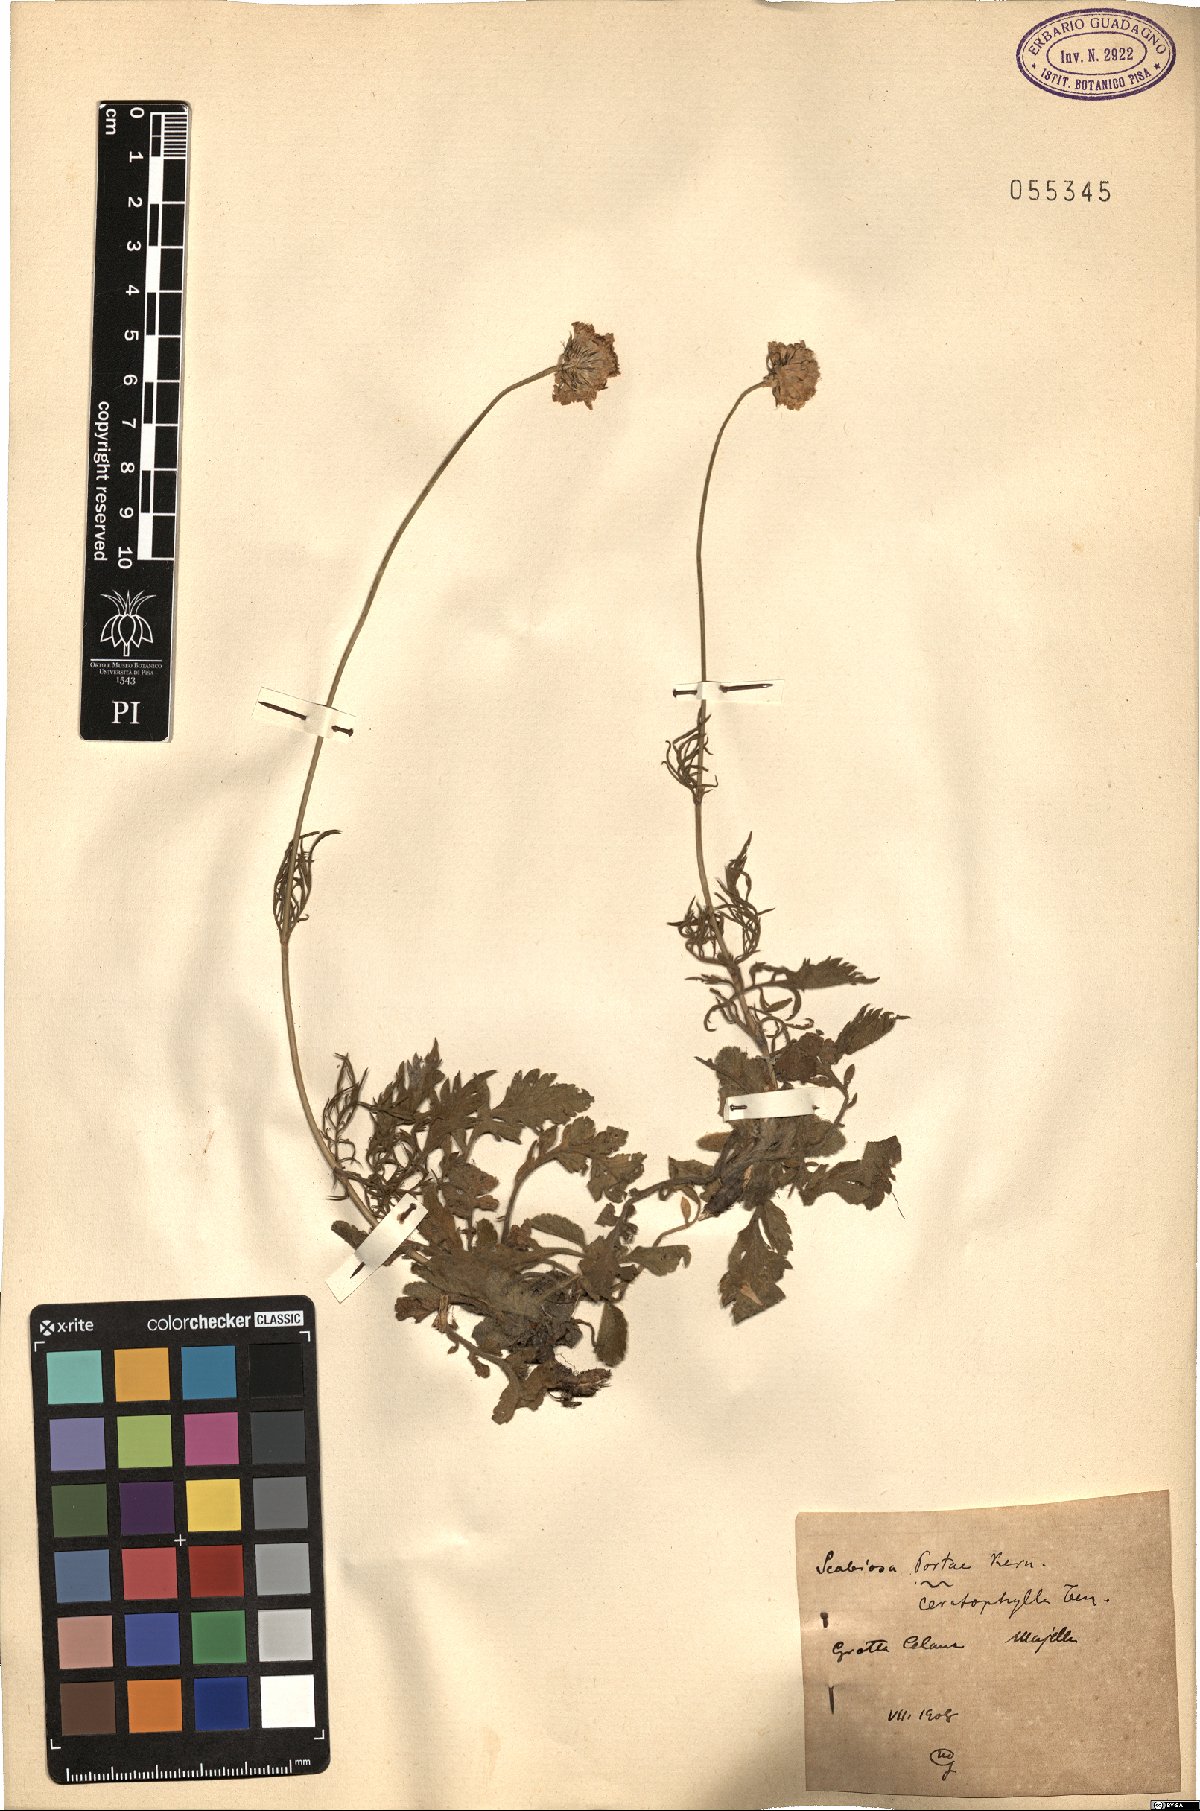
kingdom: Plantae
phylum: Tracheophyta
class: Magnoliopsida
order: Dipsacales
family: Caprifoliaceae
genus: Scabiosa
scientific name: Scabiosa taygetea
